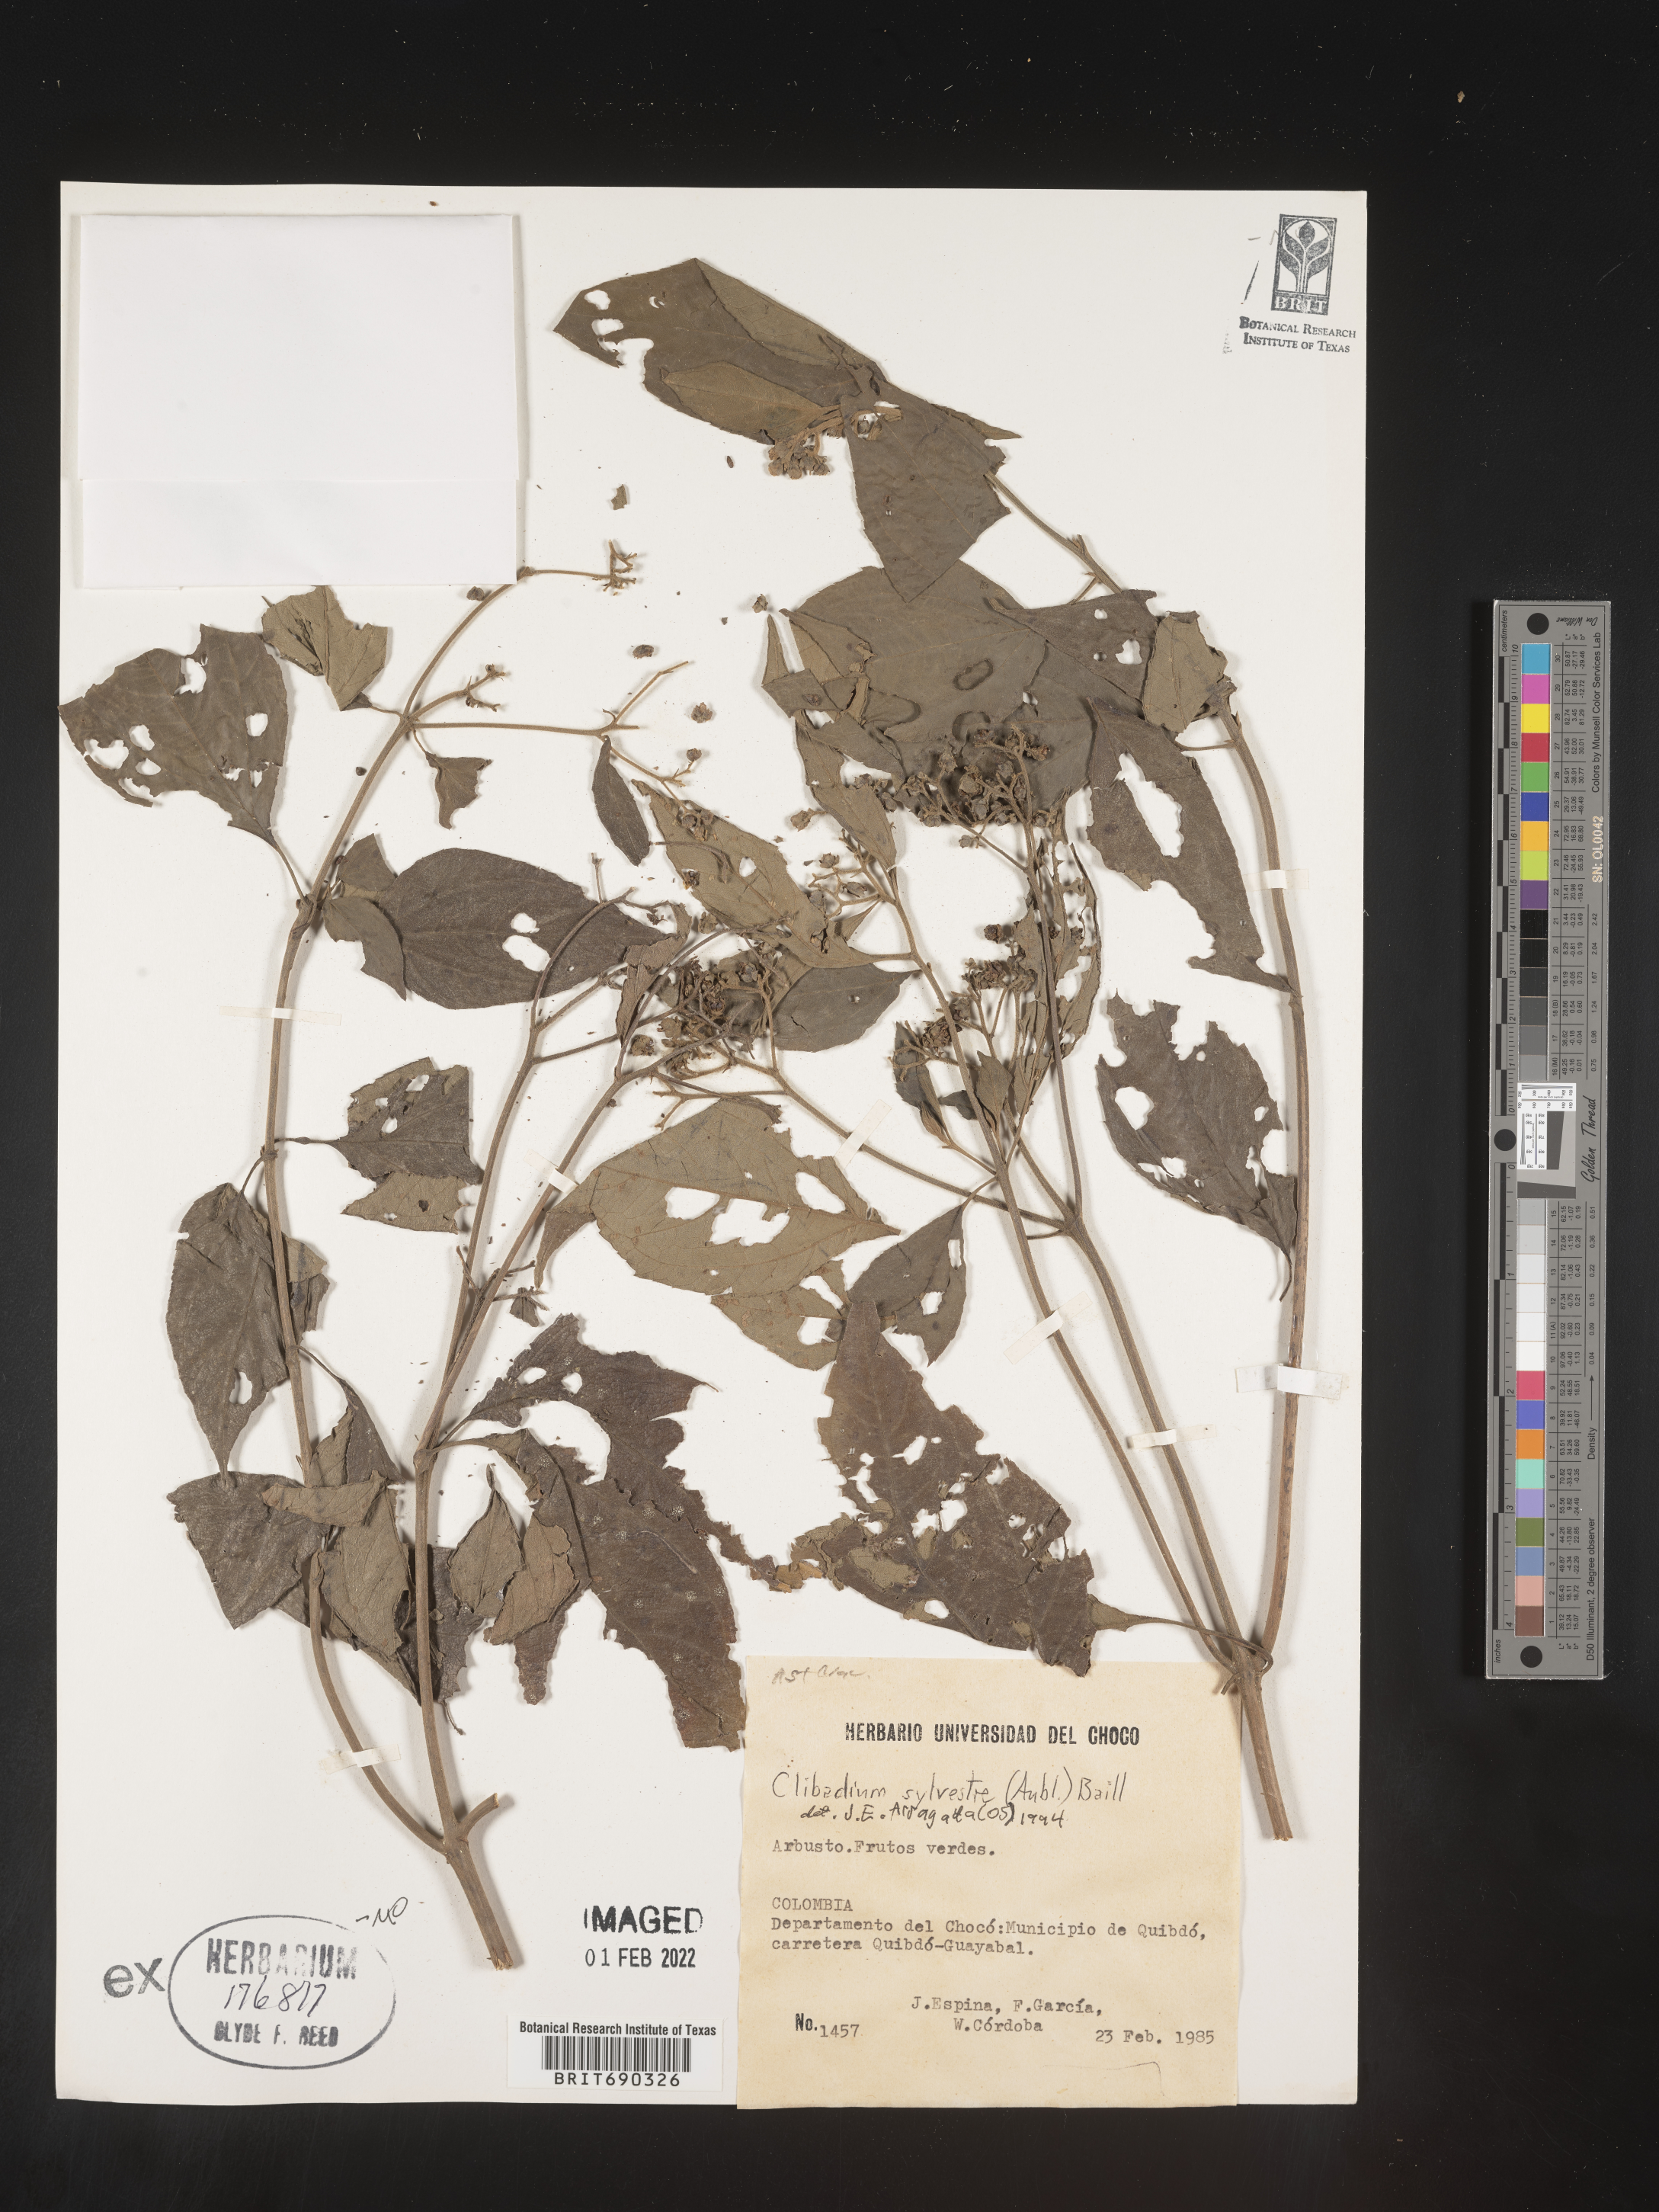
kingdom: Plantae
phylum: Tracheophyta
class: Magnoliopsida
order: Asterales
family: Asteraceae
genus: Clibadium
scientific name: Clibadium
